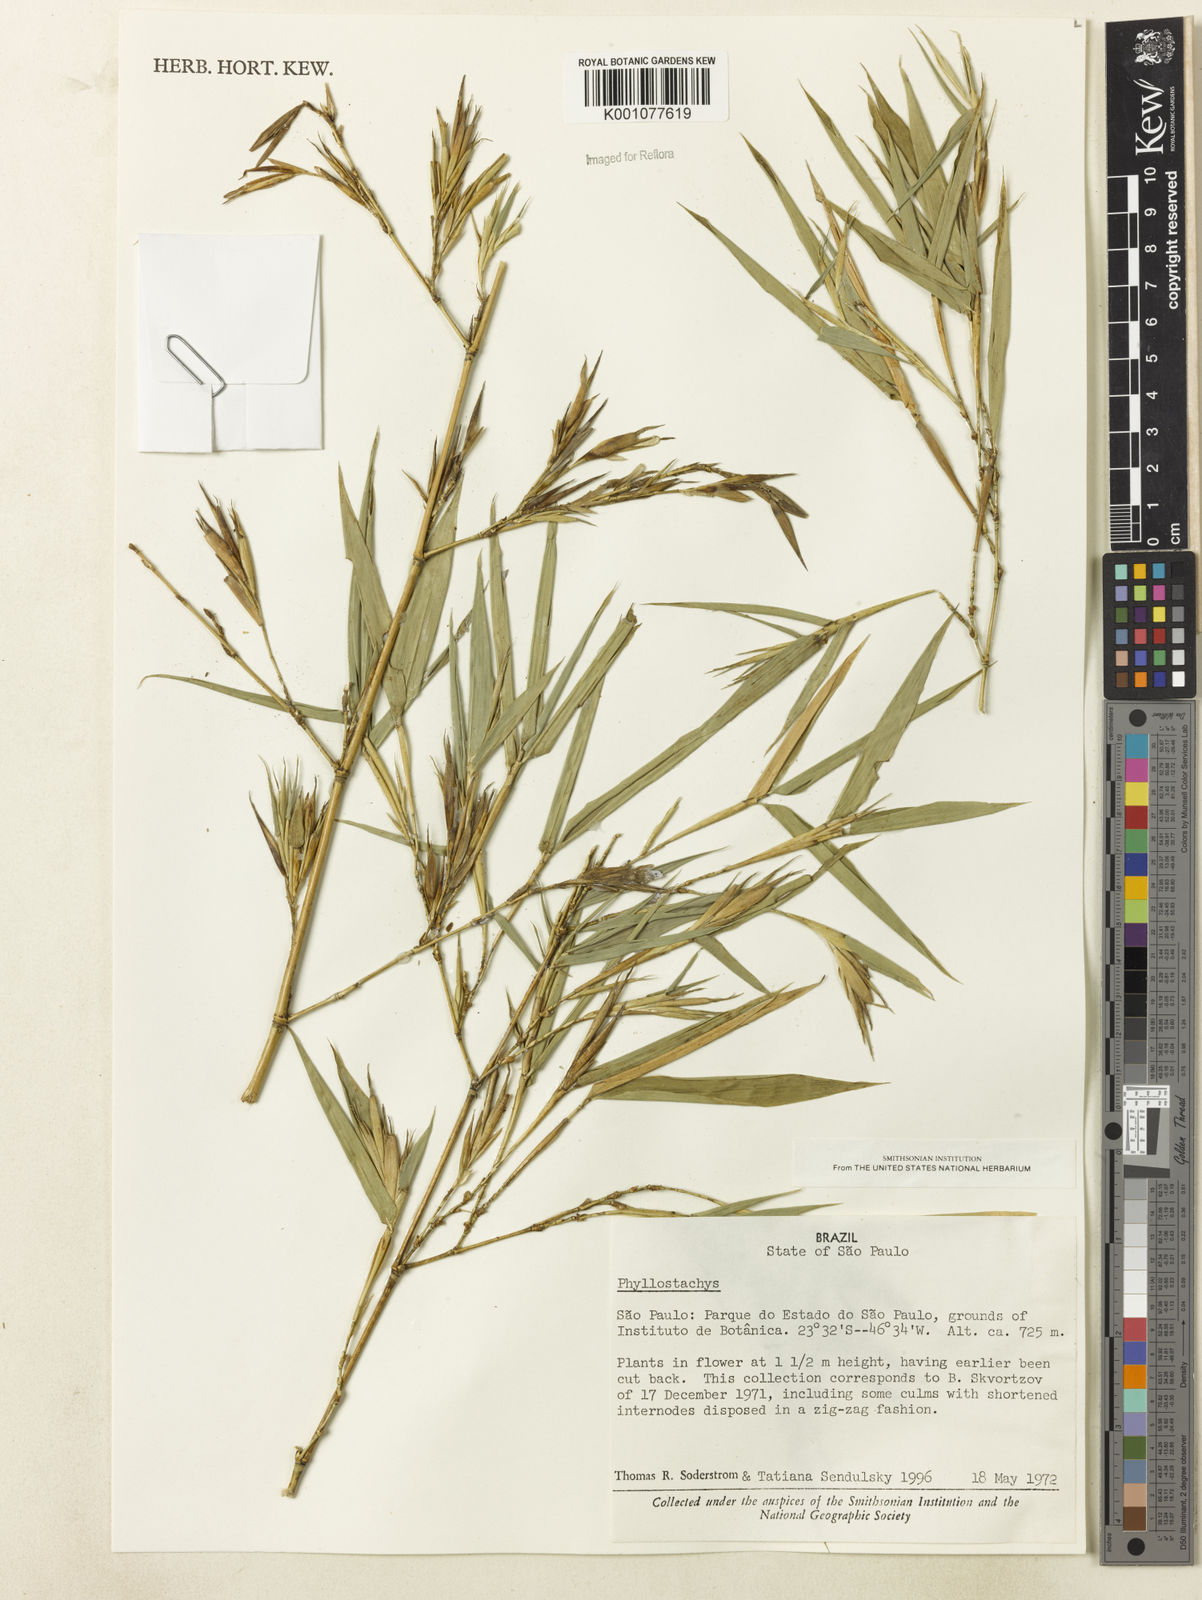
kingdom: Plantae
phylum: Tracheophyta
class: Liliopsida
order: Poales
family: Poaceae
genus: Phyllostachys
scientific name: Phyllostachys
